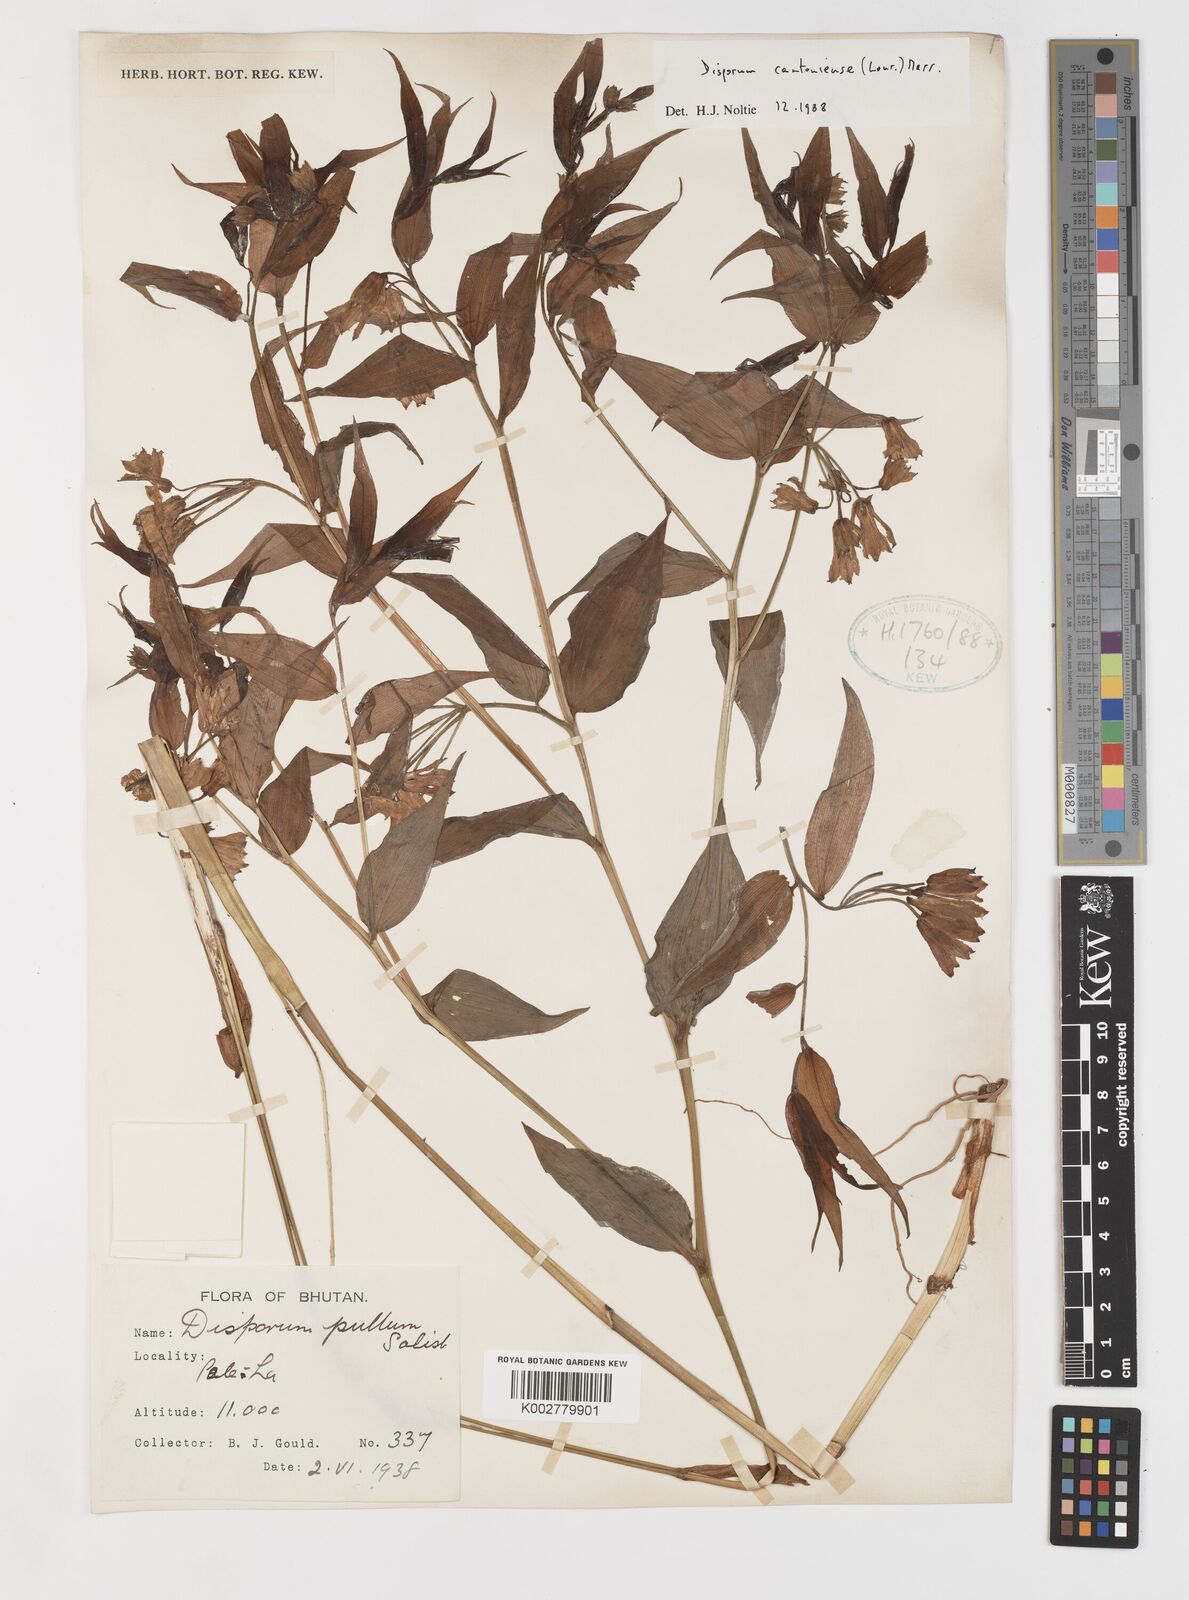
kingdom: Plantae
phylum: Tracheophyta
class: Liliopsida
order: Liliales
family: Colchicaceae
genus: Disporum
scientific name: Disporum cantoniense
